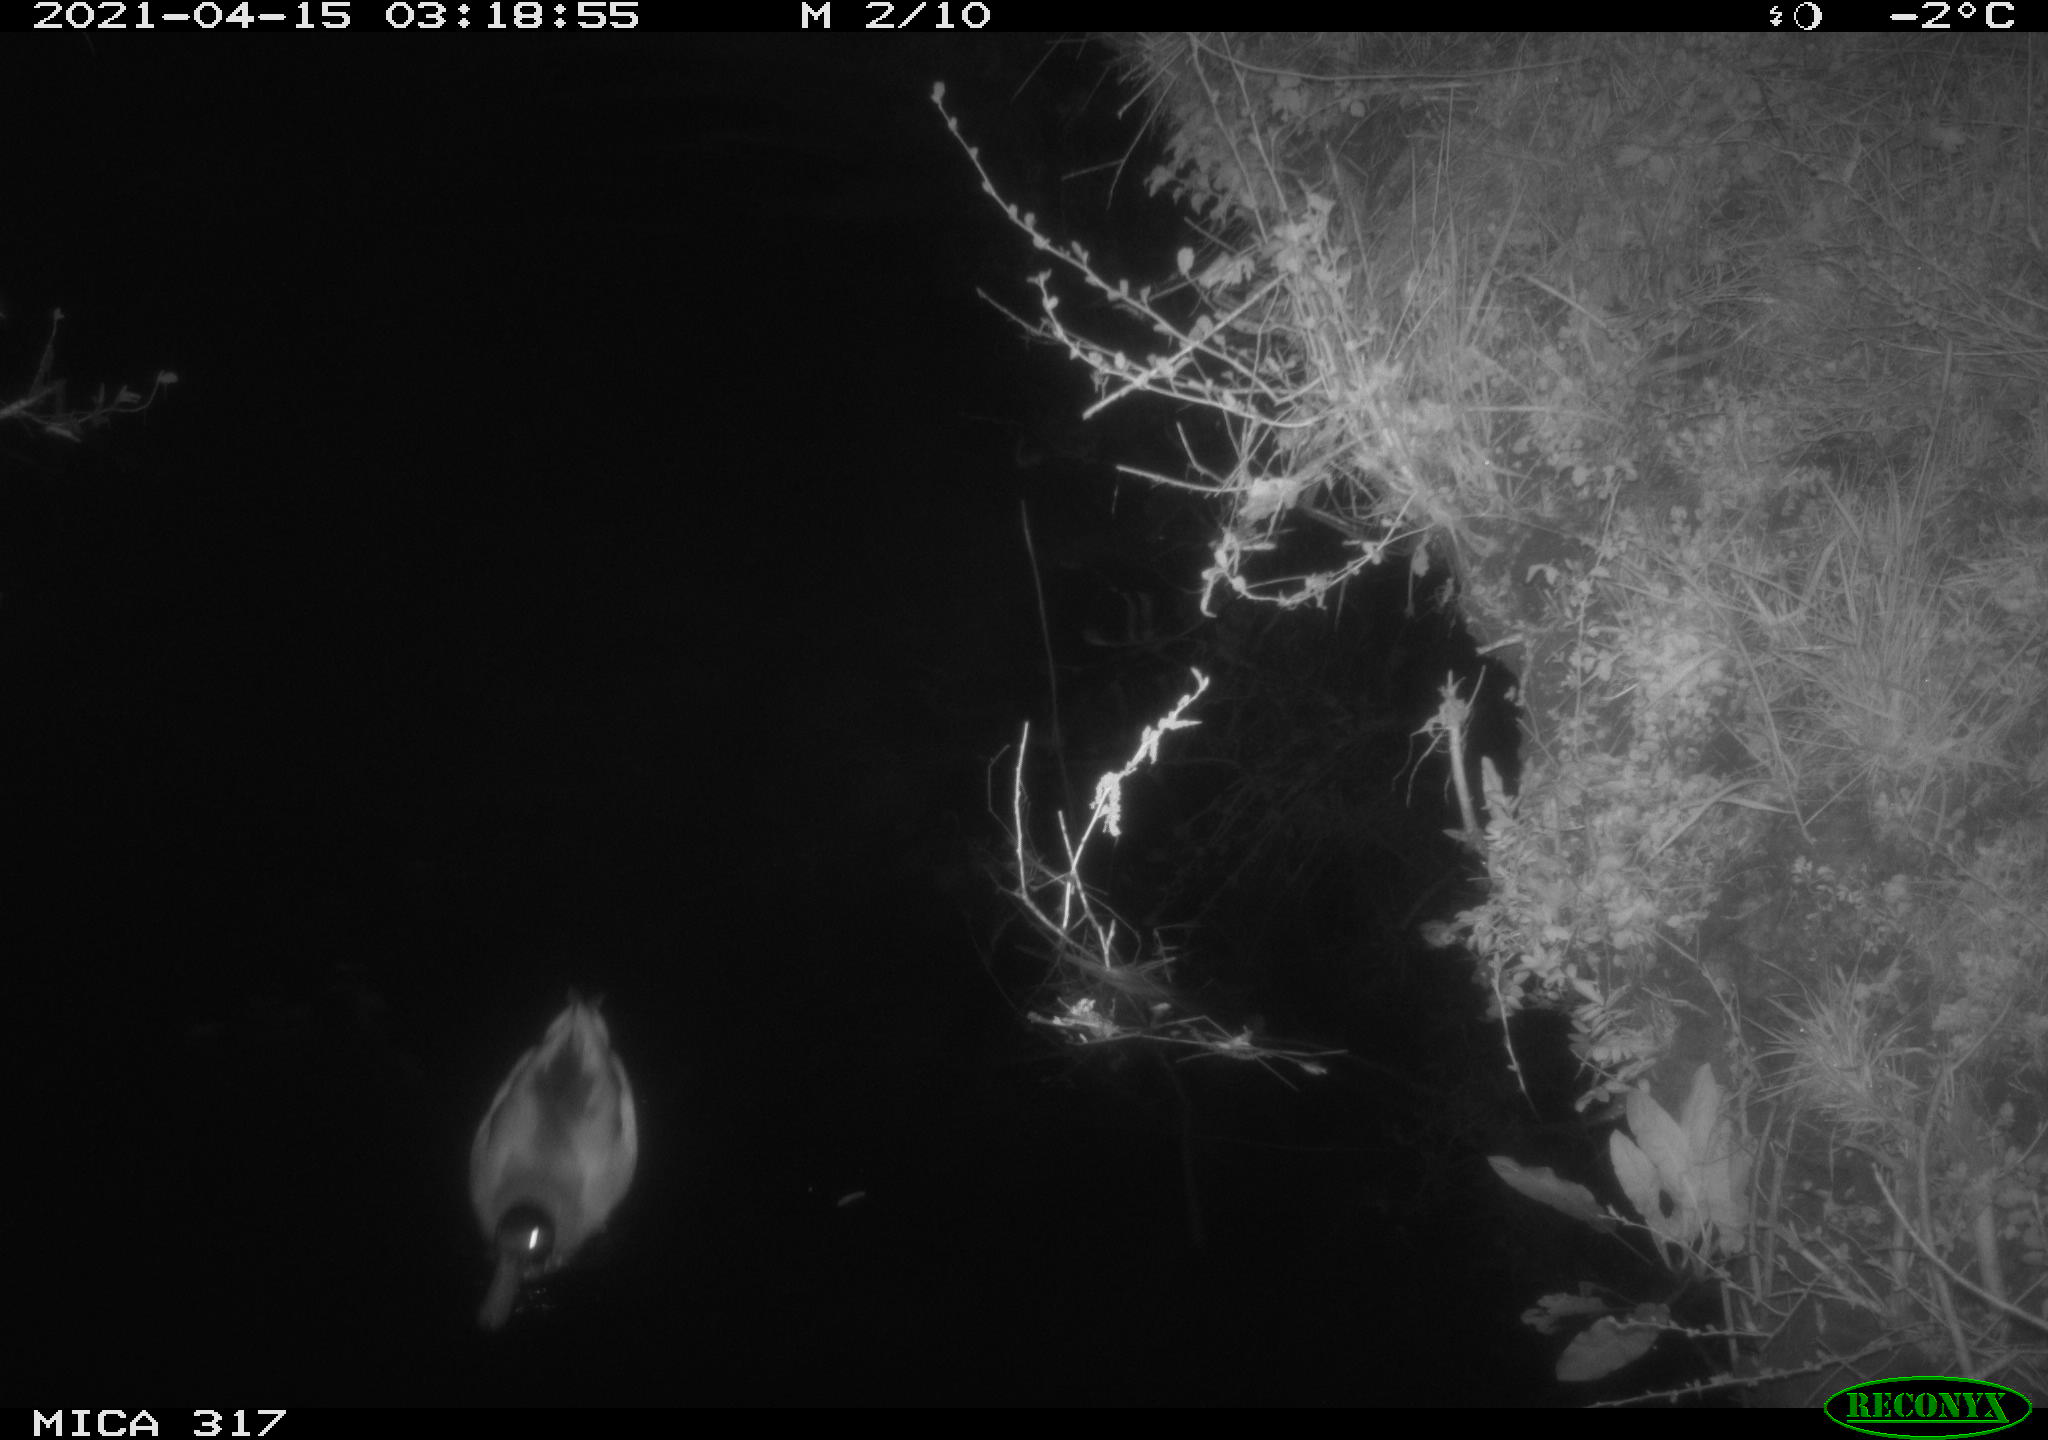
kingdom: Animalia
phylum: Chordata
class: Aves
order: Anseriformes
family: Anatidae
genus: Anas
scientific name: Anas platyrhynchos
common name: Mallard
